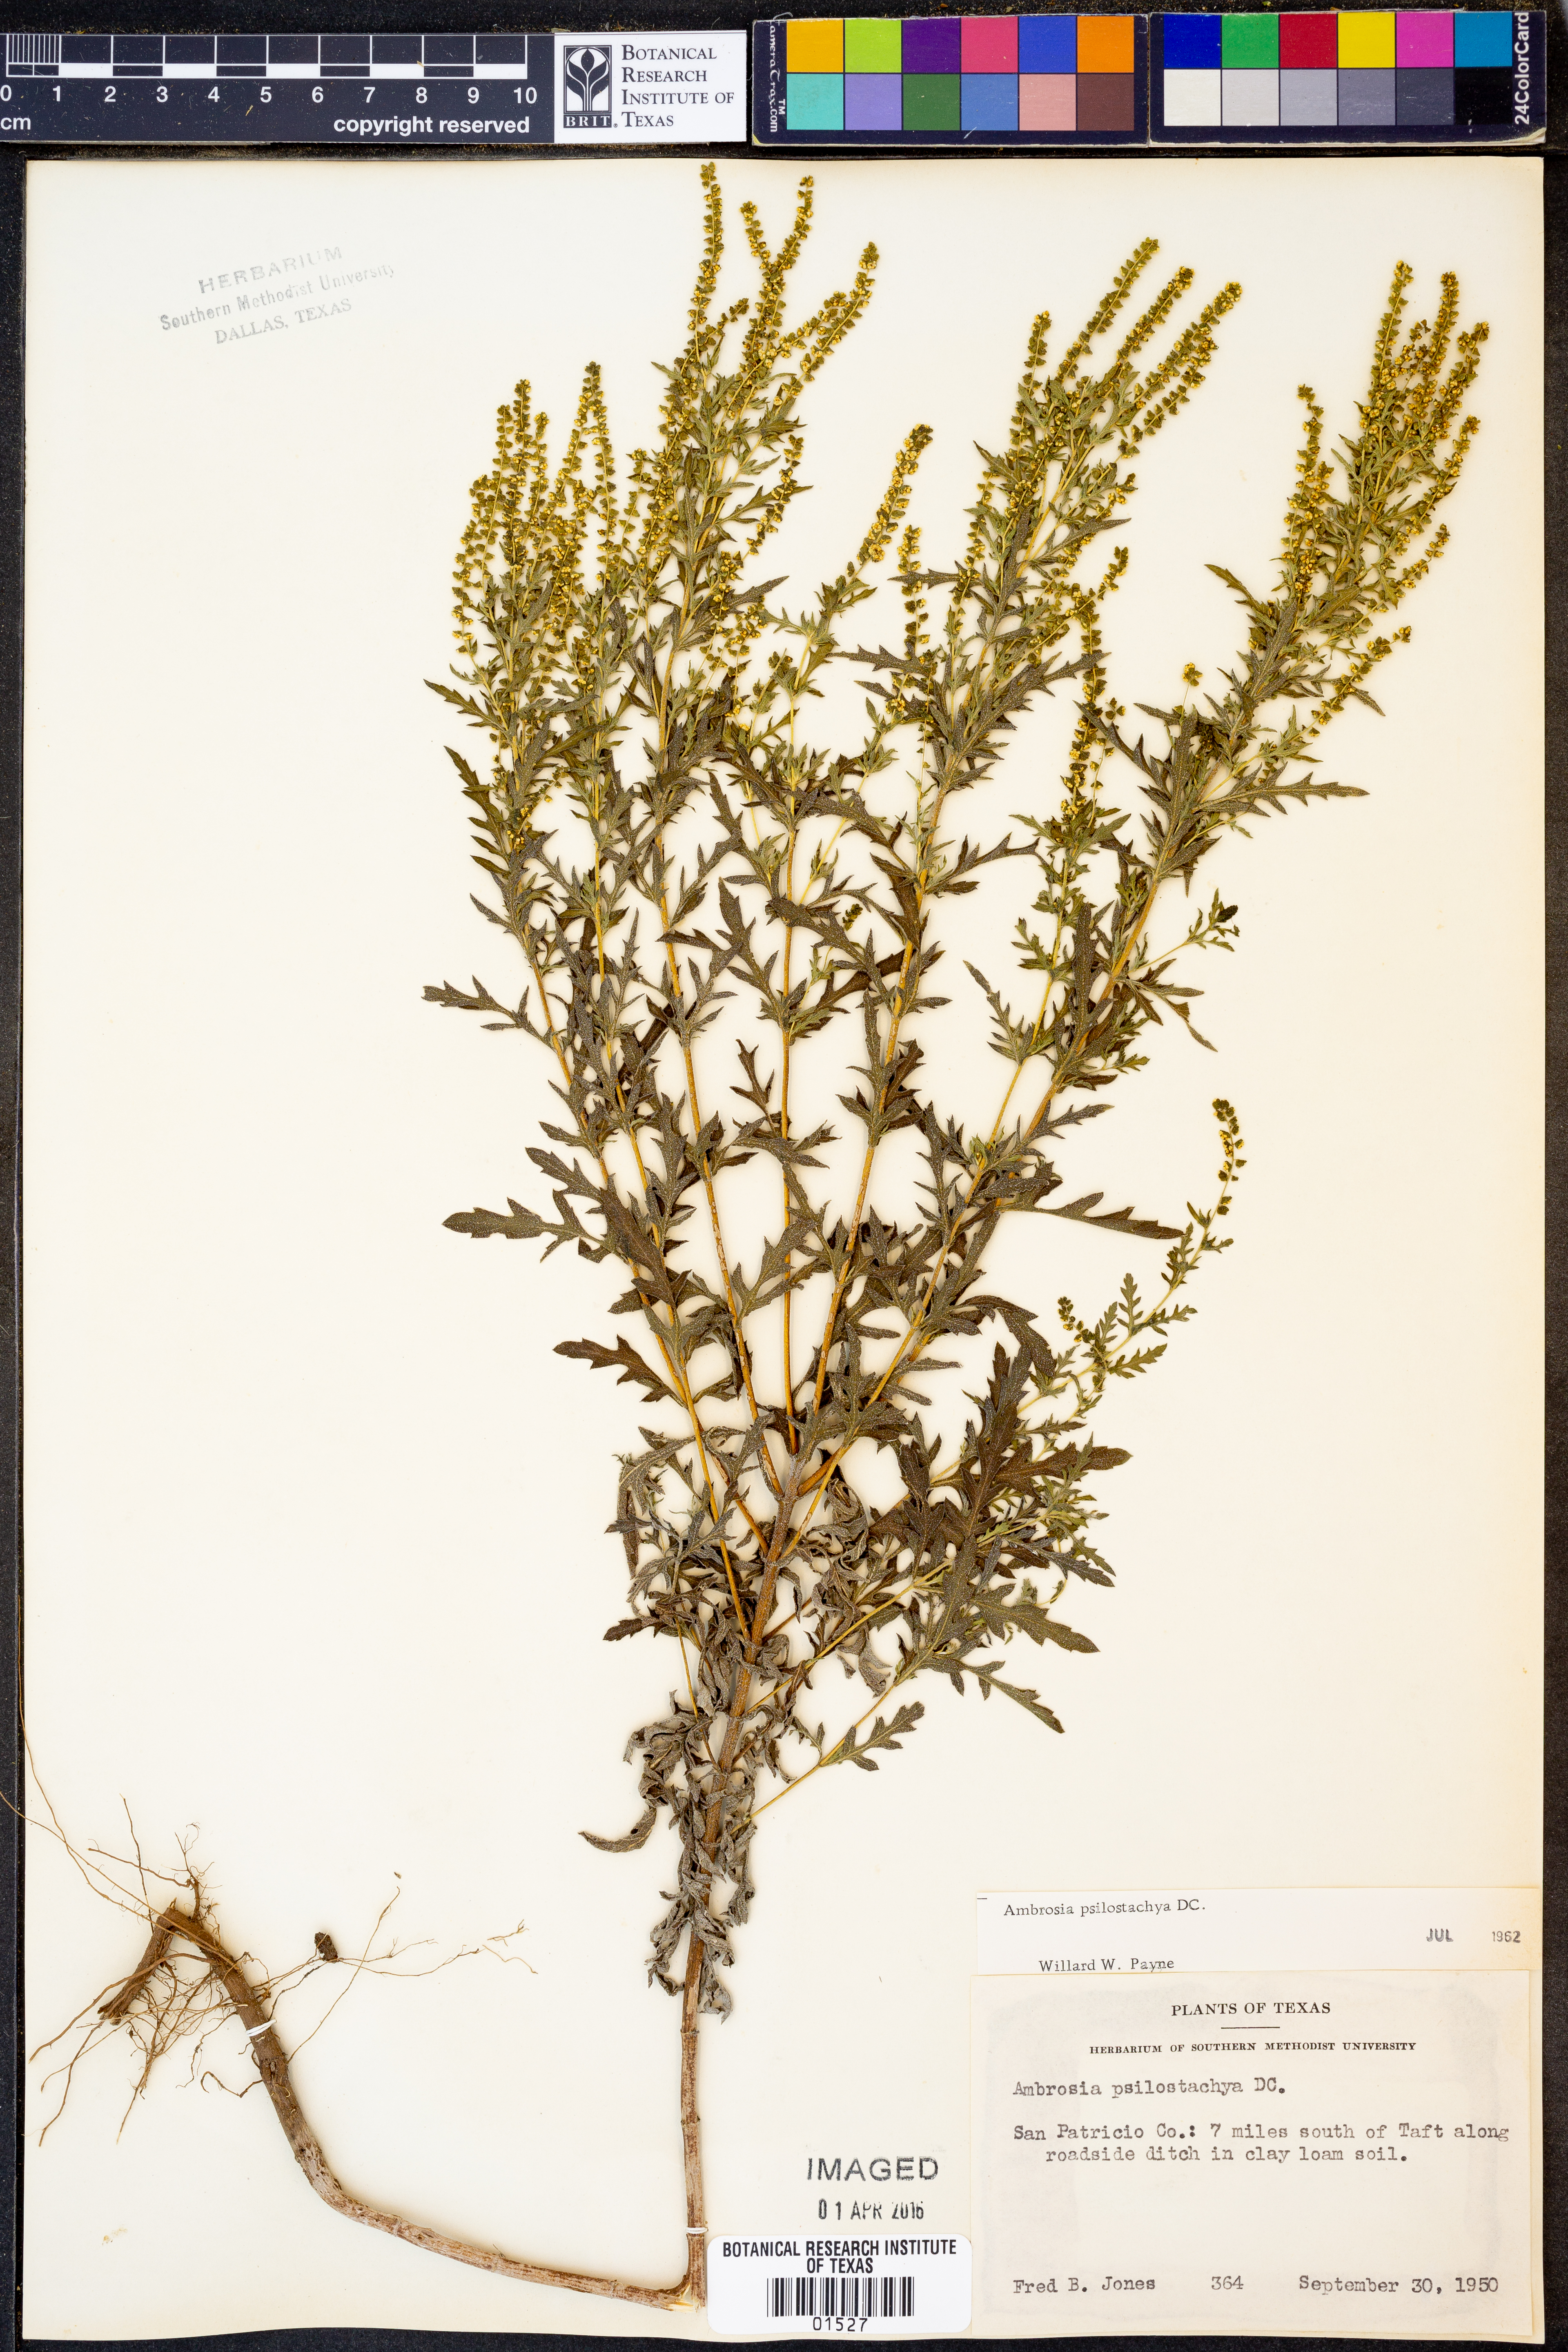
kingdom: Plantae
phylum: Tracheophyta
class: Magnoliopsida
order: Asterales
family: Asteraceae
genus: Ambrosia
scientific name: Ambrosia psilostachya
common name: Perennial ragweed
